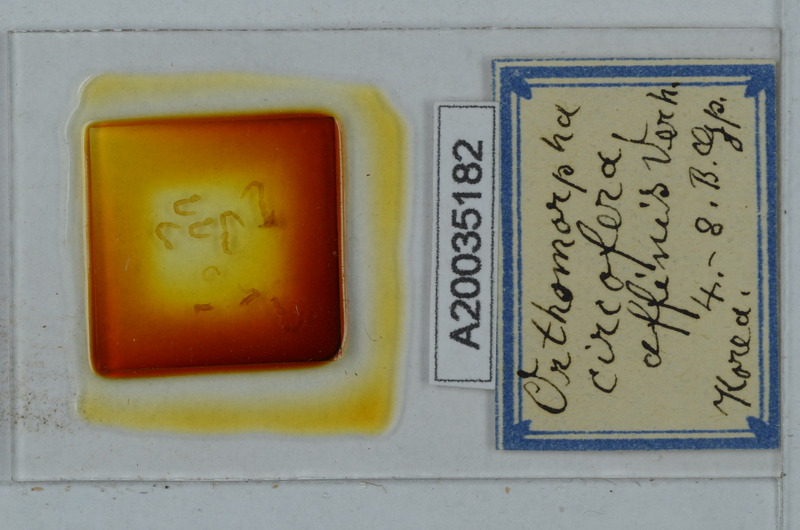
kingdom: Animalia
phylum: Arthropoda
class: Diplopoda
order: Polydesmida
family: Paradoxosomatidae
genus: Orthomorphella
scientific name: Orthomorphella pekuensis
